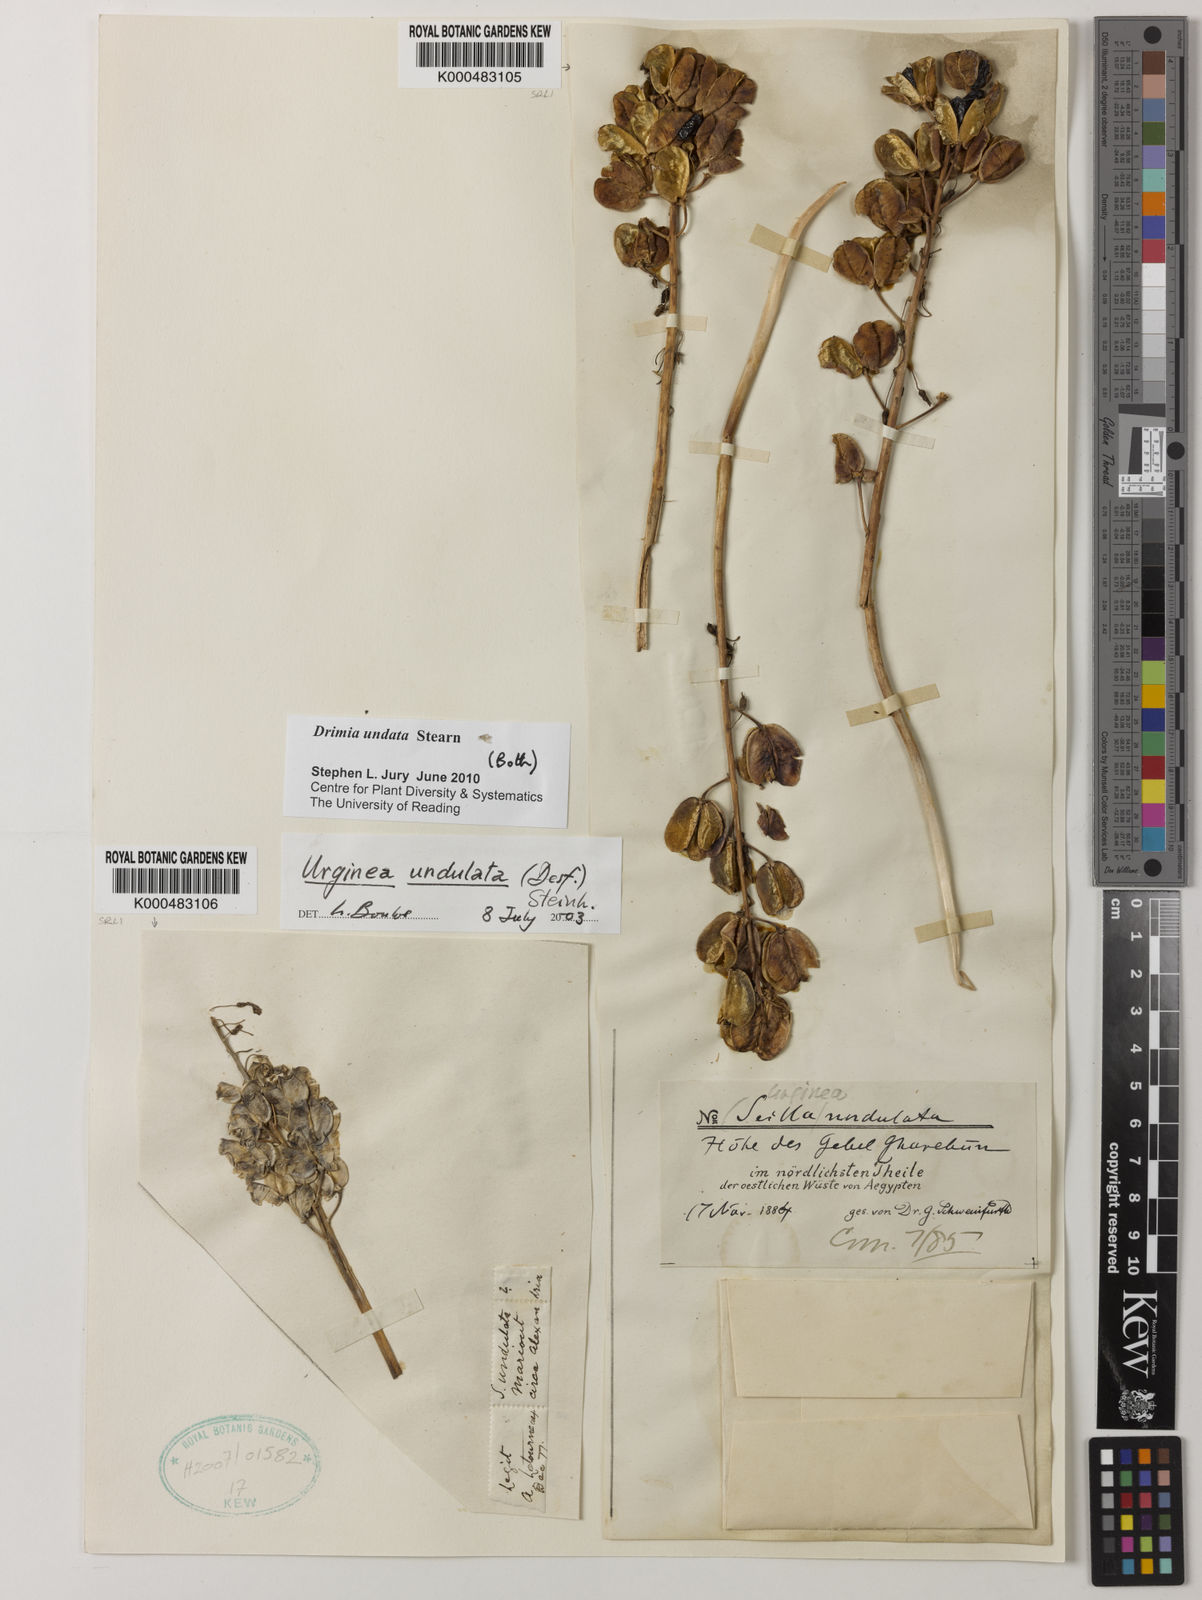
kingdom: Plantae
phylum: Tracheophyta
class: Liliopsida
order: Asparagales
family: Asparagaceae
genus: Drimia
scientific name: Drimia purpurascens
